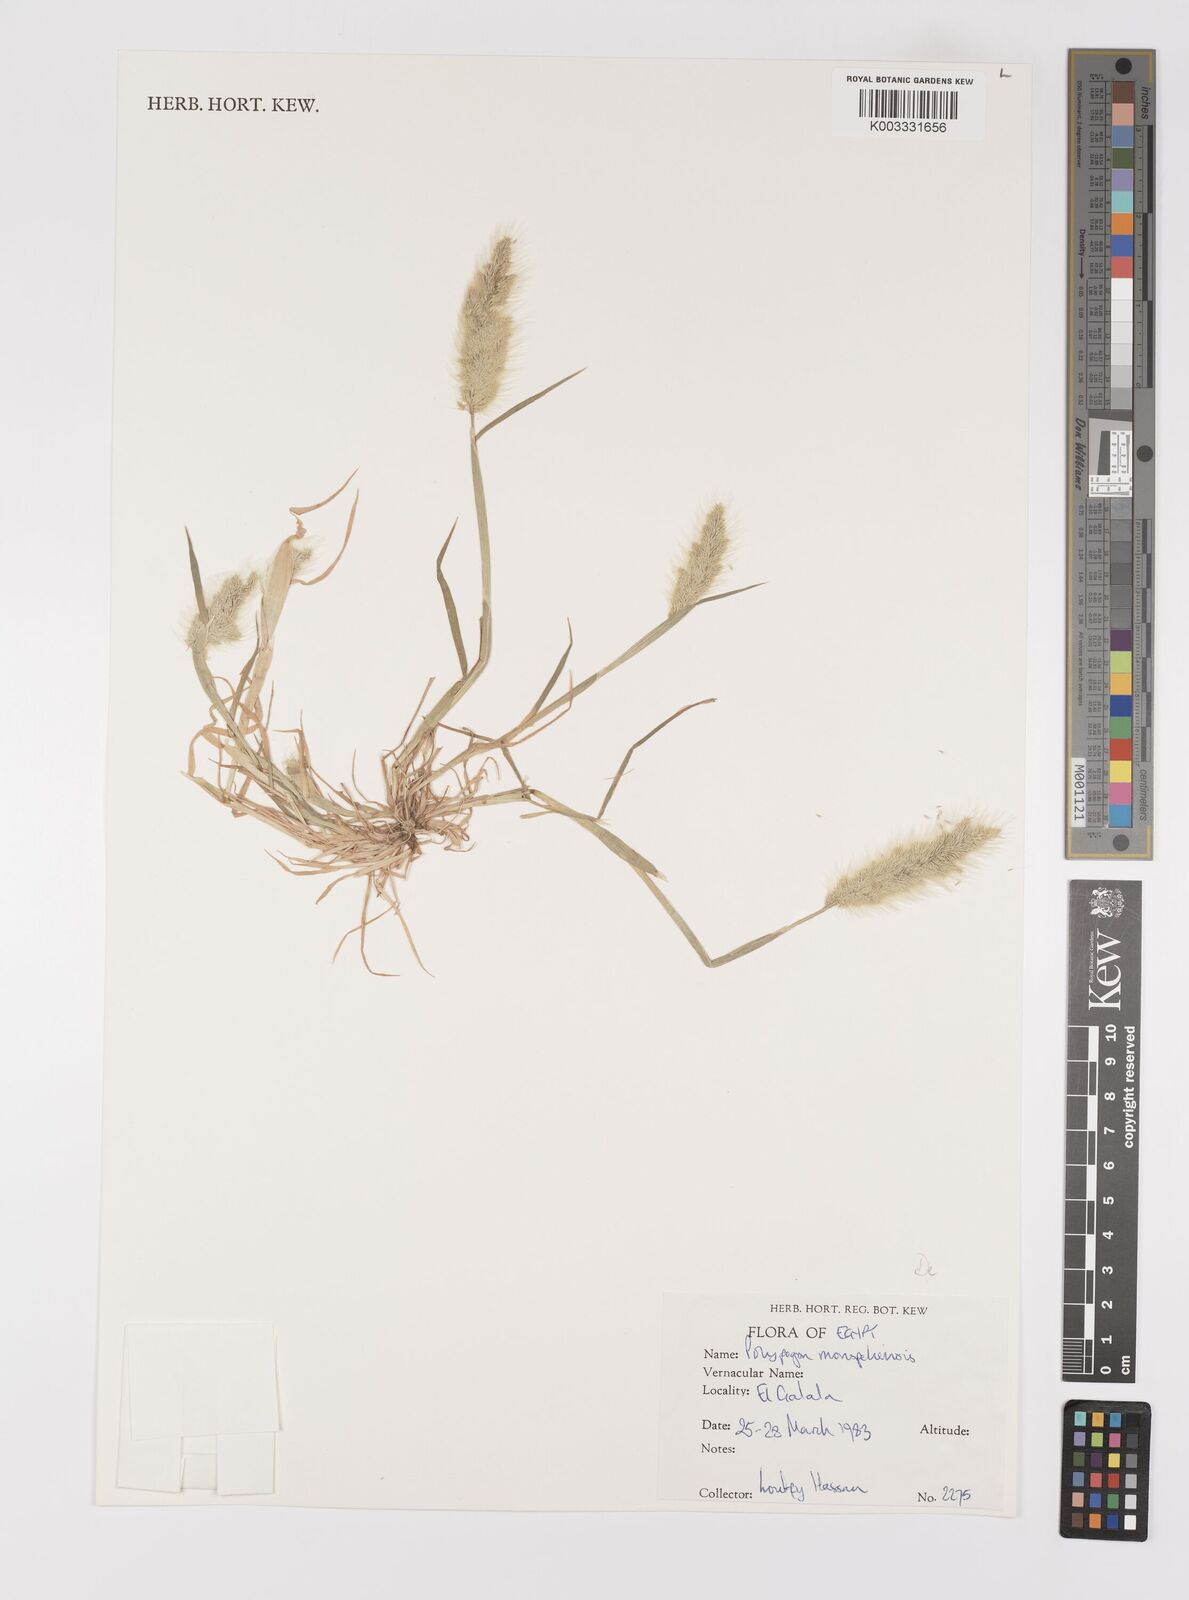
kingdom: Plantae
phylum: Tracheophyta
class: Liliopsida
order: Poales
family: Poaceae
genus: Polypogon
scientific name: Polypogon monspeliensis
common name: Annual rabbitsfoot grass
